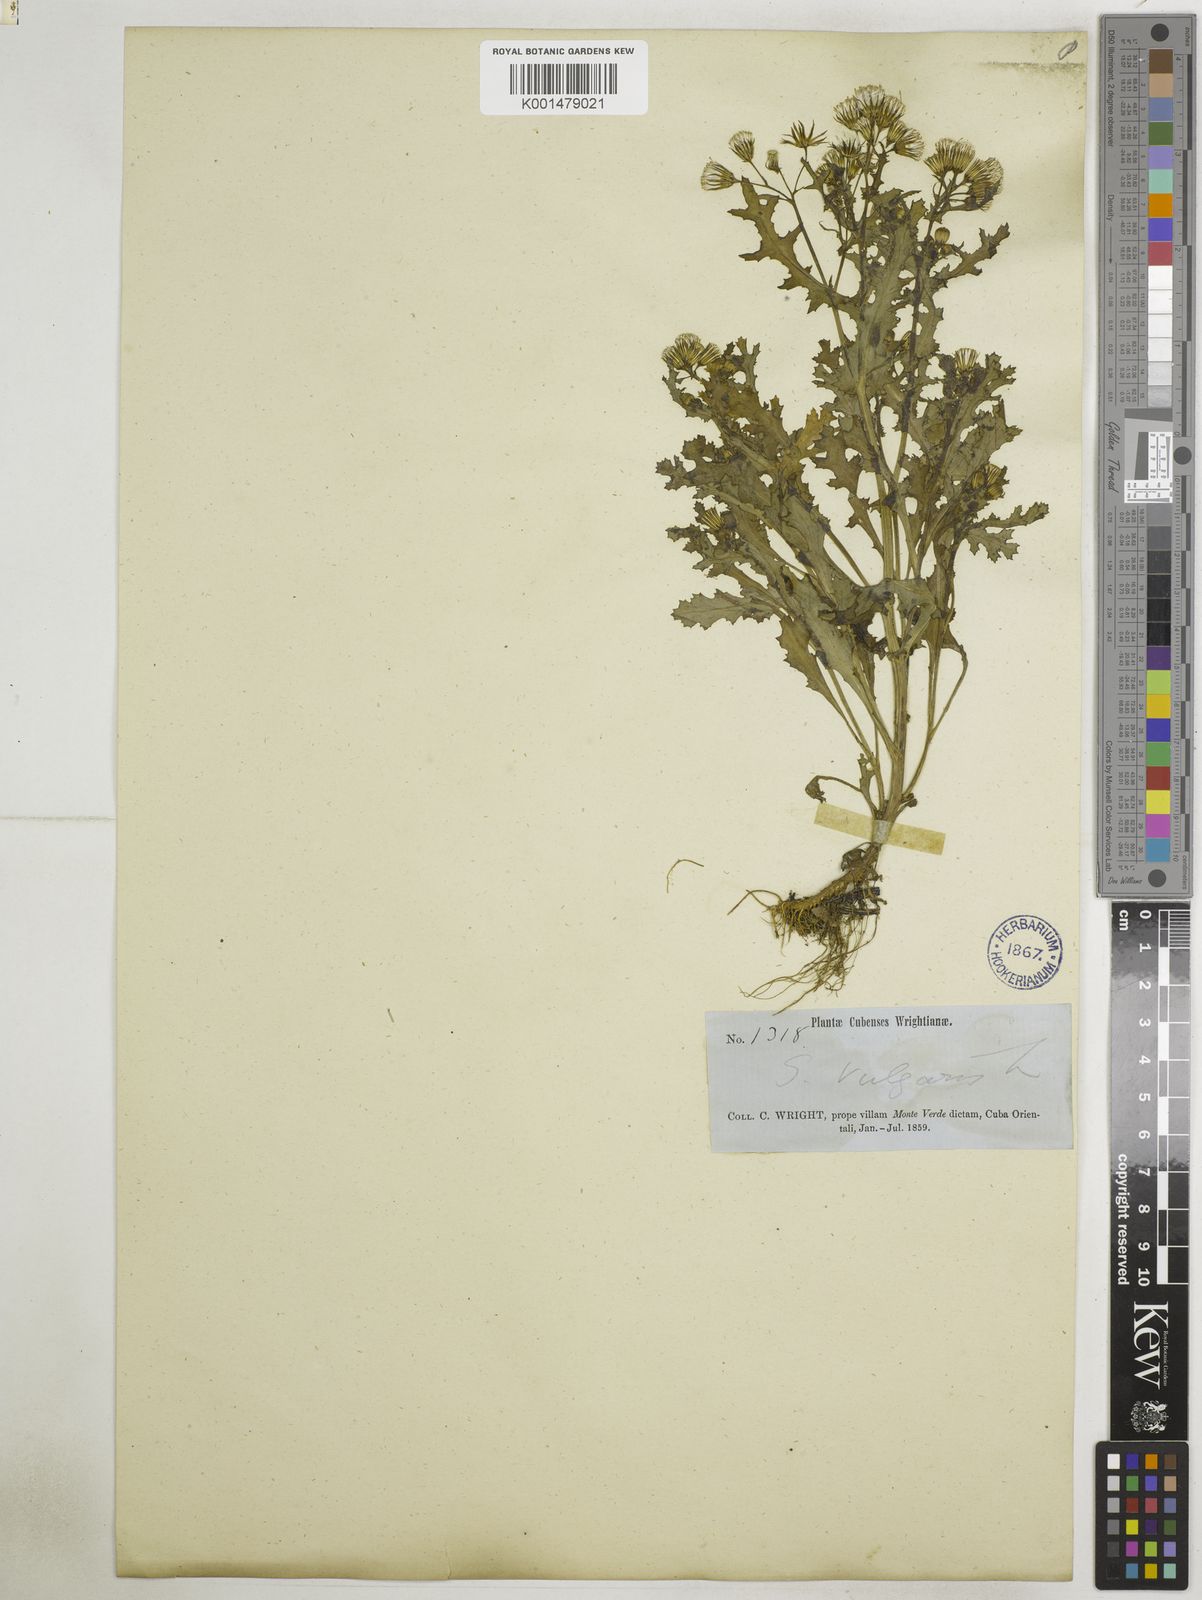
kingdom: Plantae
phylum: Tracheophyta
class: Magnoliopsida
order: Asterales
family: Asteraceae
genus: Senecio
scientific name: Senecio vulgaris
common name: Old-man-in-the-spring
